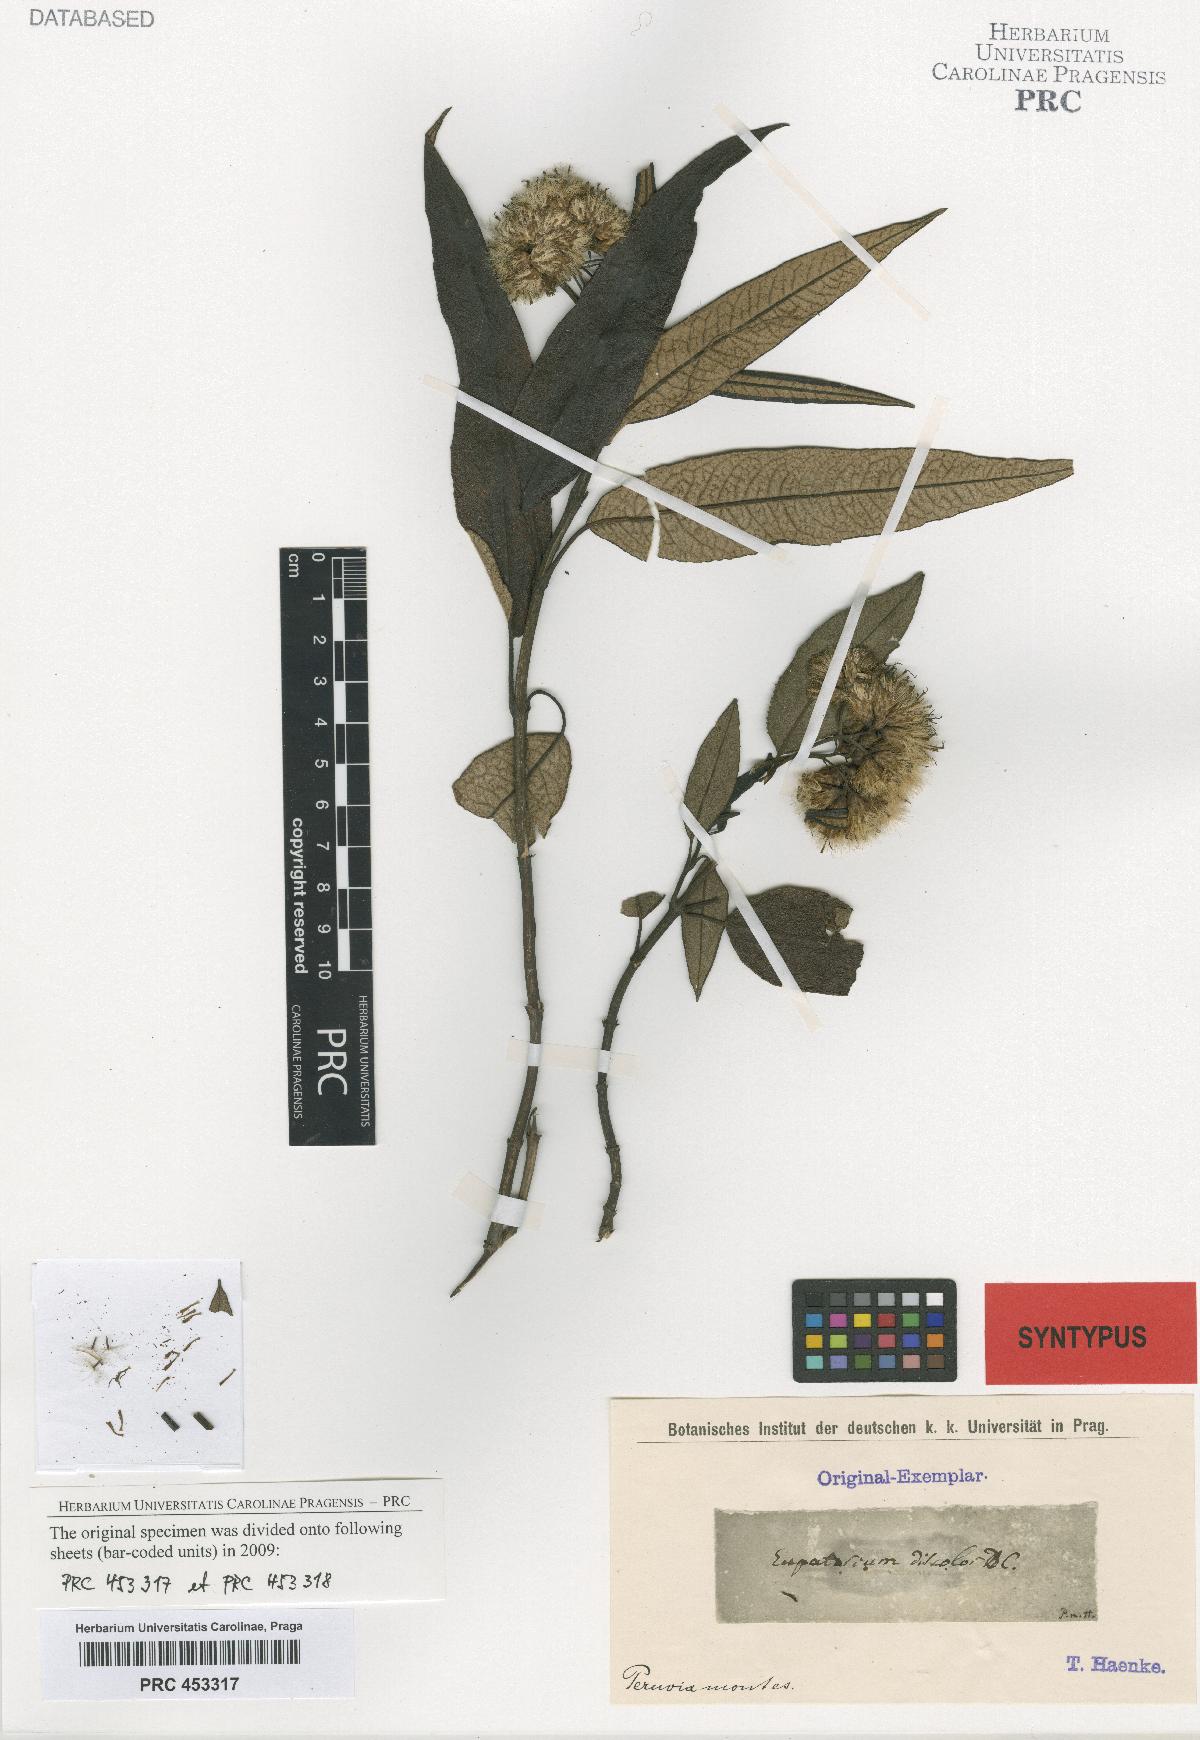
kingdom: Plantae
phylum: Tracheophyta
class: Magnoliopsida
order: Asterales
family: Asteraceae
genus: Aristeguietia
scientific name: Aristeguietia discolor
